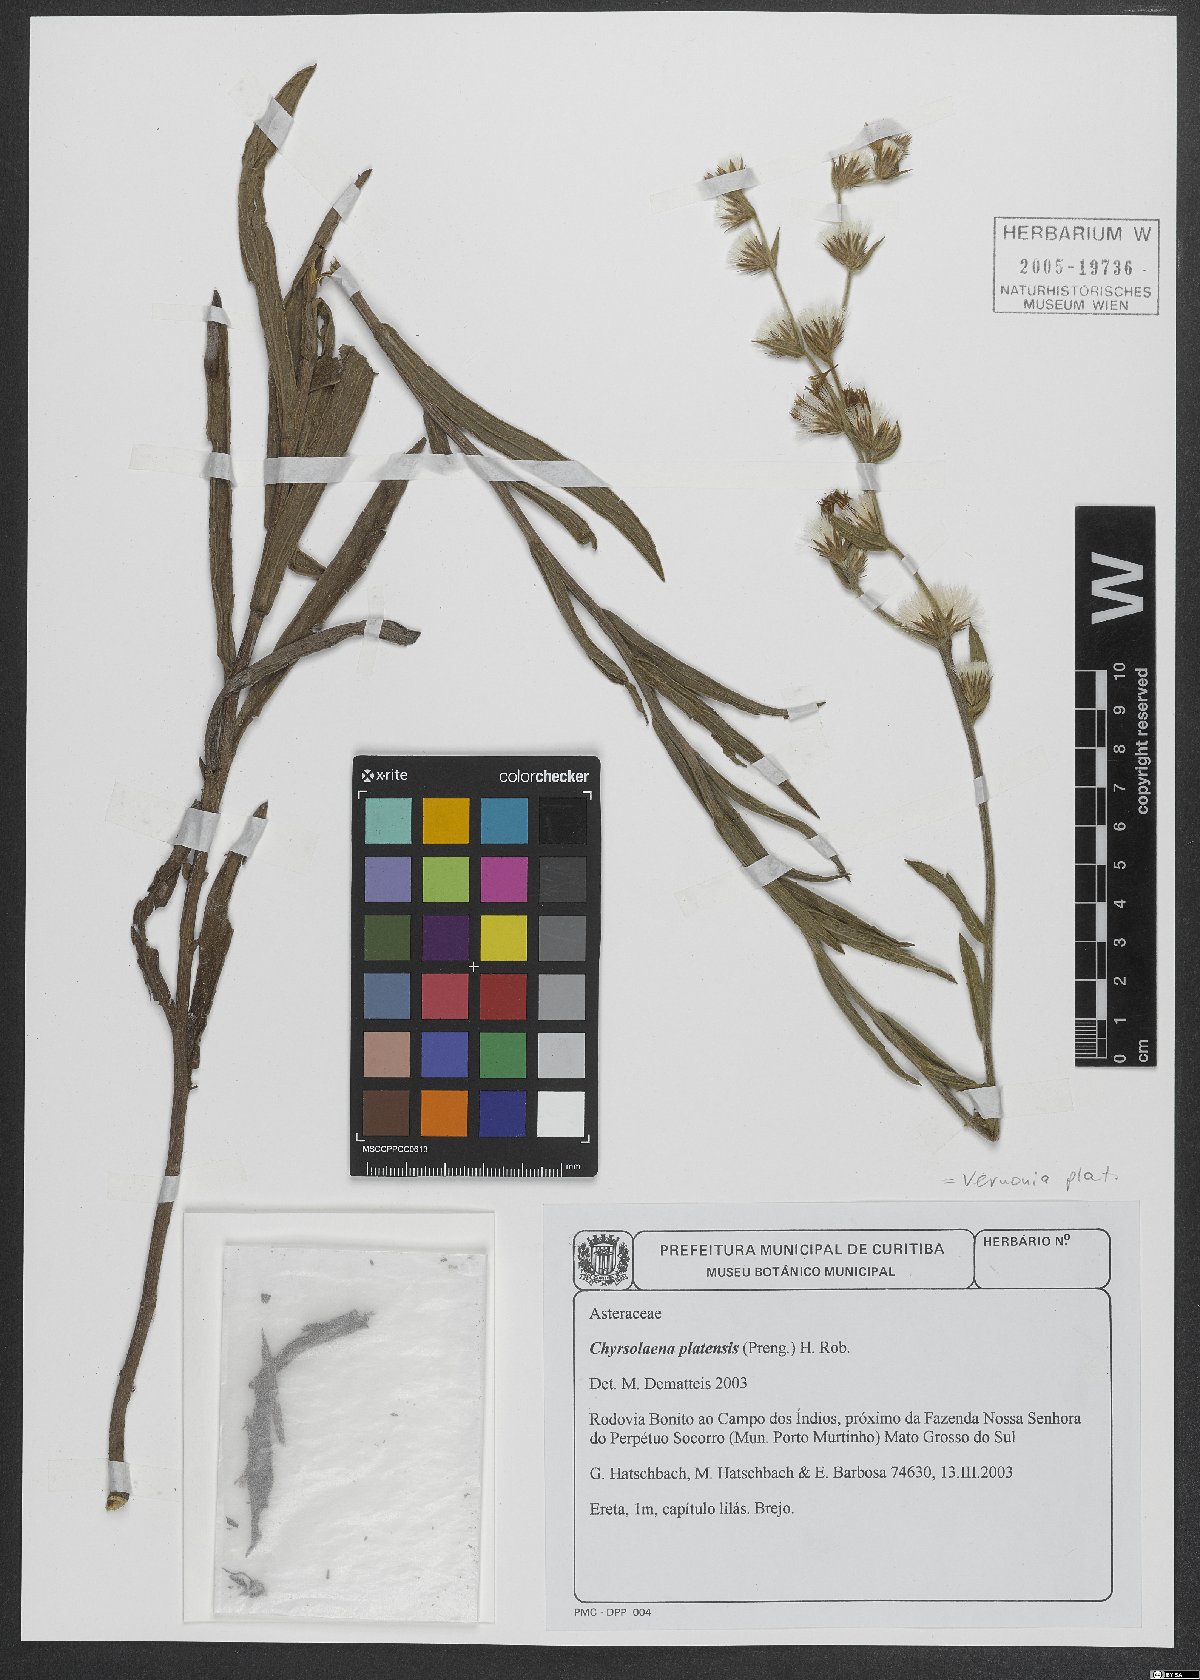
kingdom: Plantae
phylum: Tracheophyta
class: Magnoliopsida
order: Asterales
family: Asteraceae
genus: Chrysolaena
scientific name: Chrysolaena platensis
